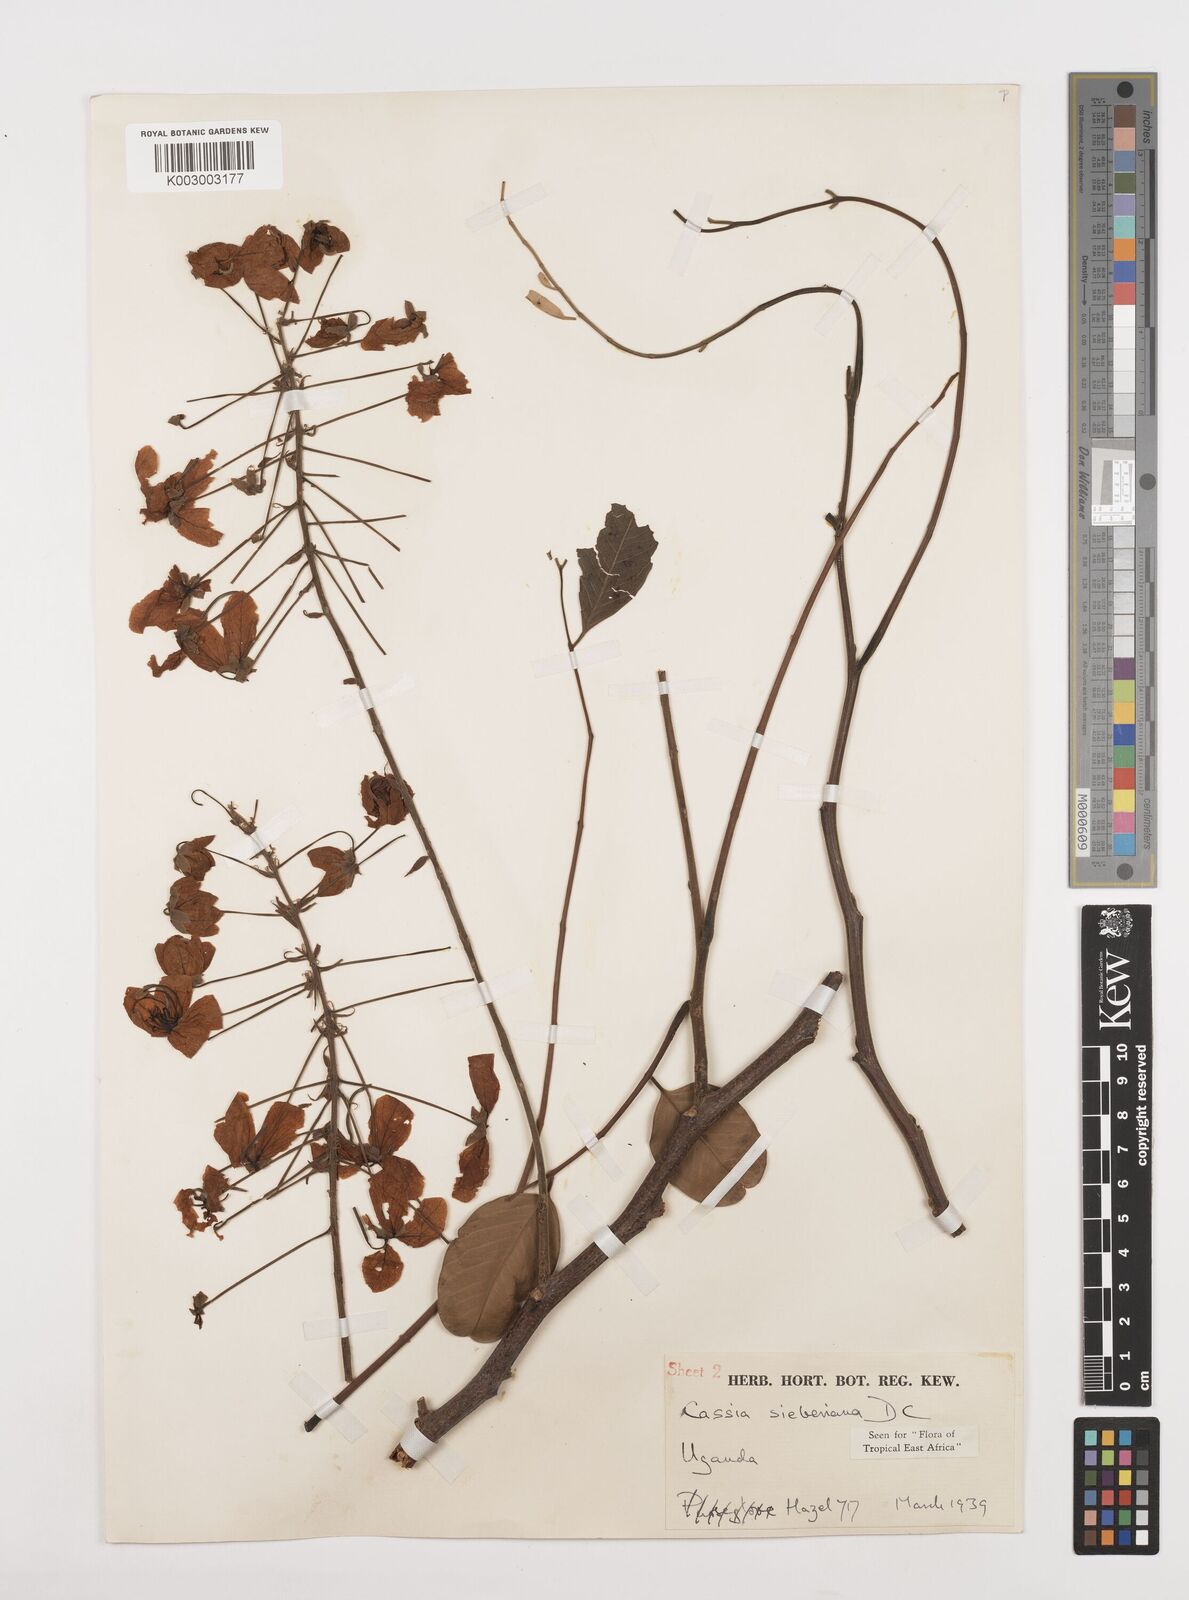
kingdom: Plantae
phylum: Tracheophyta
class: Magnoliopsida
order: Fabales
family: Fabaceae
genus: Cassia
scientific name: Cassia sieberiana
